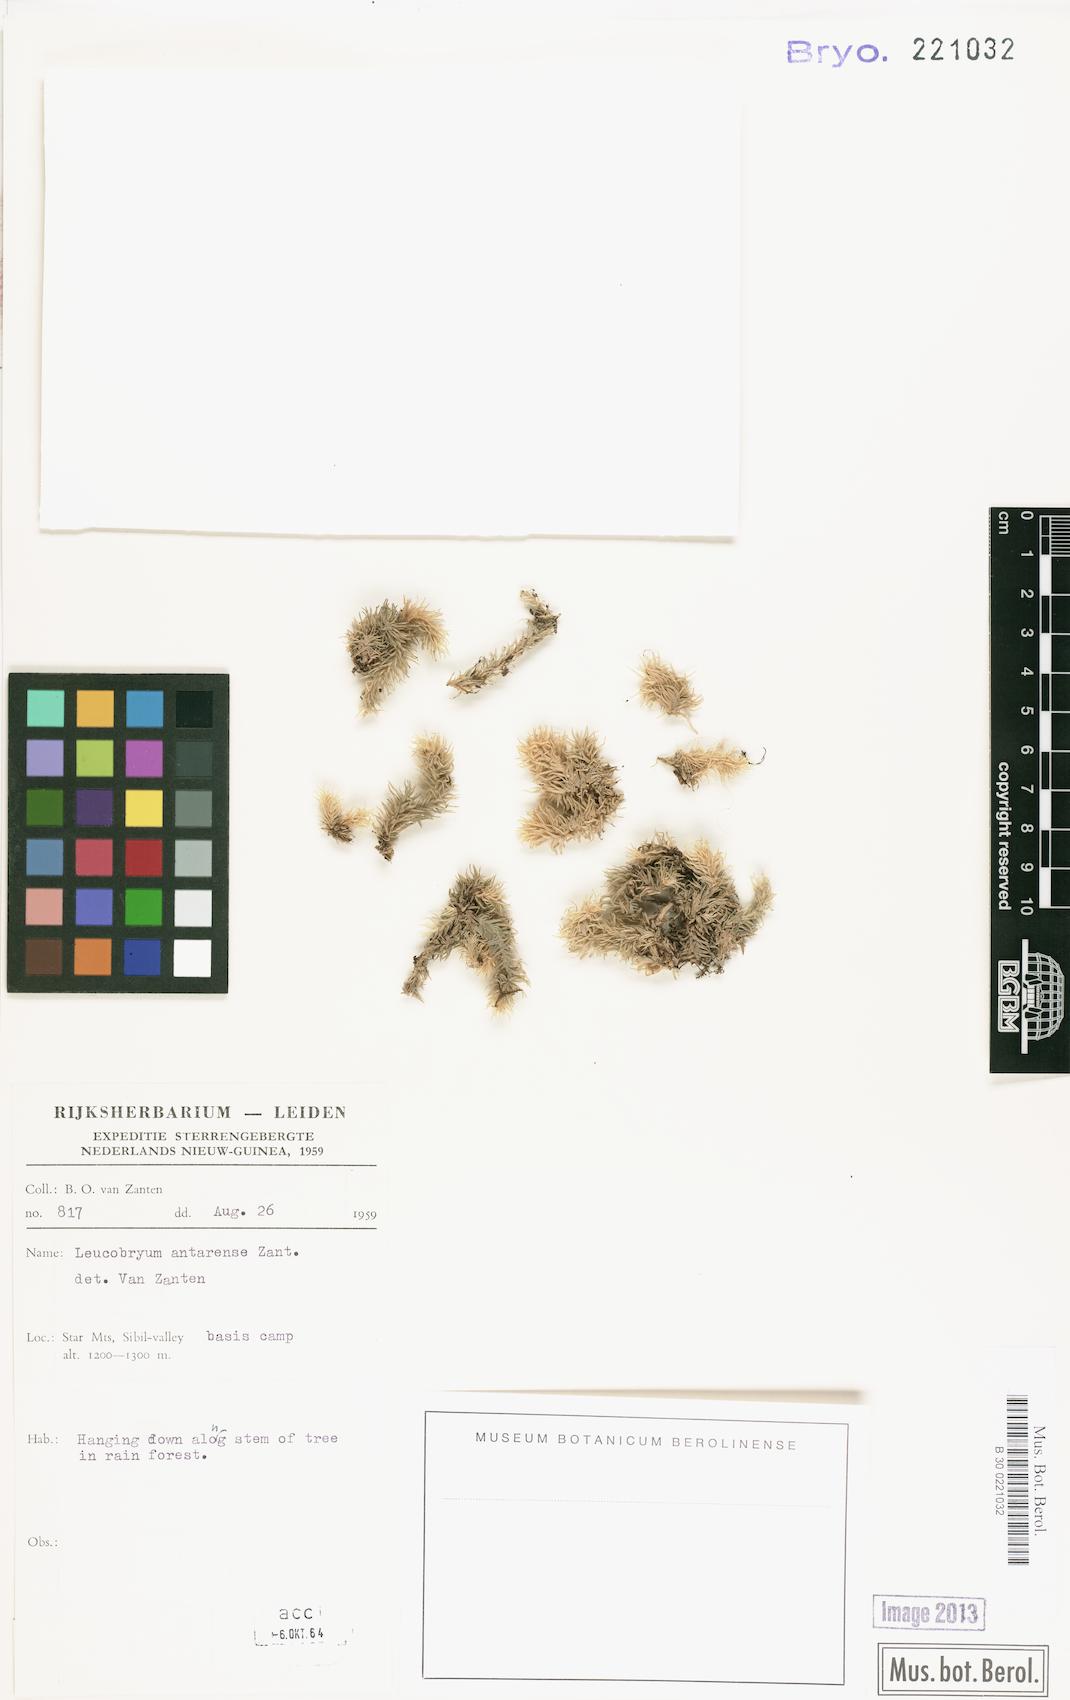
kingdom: Plantae
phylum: Bryophyta
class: Bryopsida
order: Dicranales
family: Leucobryaceae
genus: Leucobryum
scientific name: Leucobryum javense
